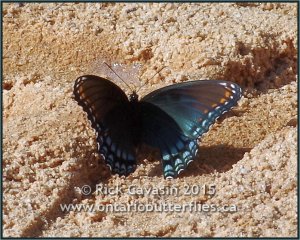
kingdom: Animalia
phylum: Arthropoda
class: Insecta
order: Lepidoptera
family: Nymphalidae
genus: Limenitis
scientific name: Limenitis astyanax
